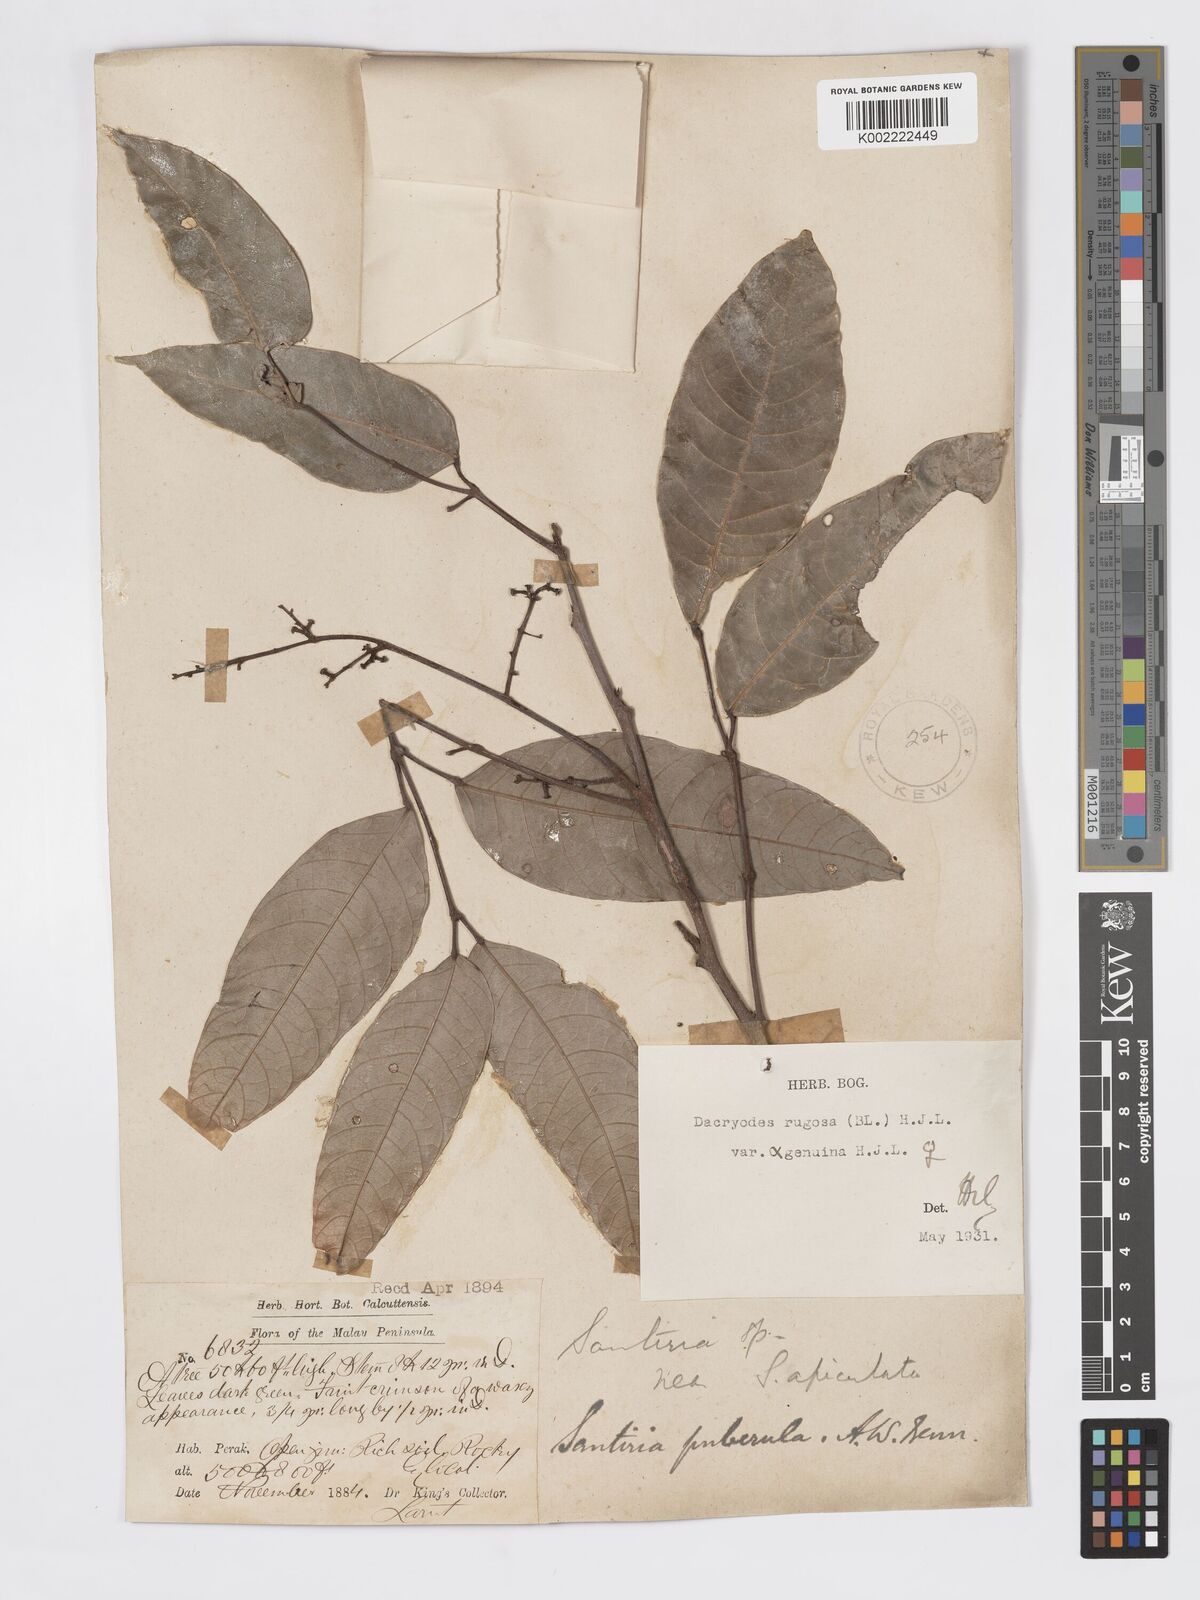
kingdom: Plantae
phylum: Tracheophyta
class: Magnoliopsida
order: Sapindales
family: Burseraceae
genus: Dacryodes
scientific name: Dacryodes rugosa
